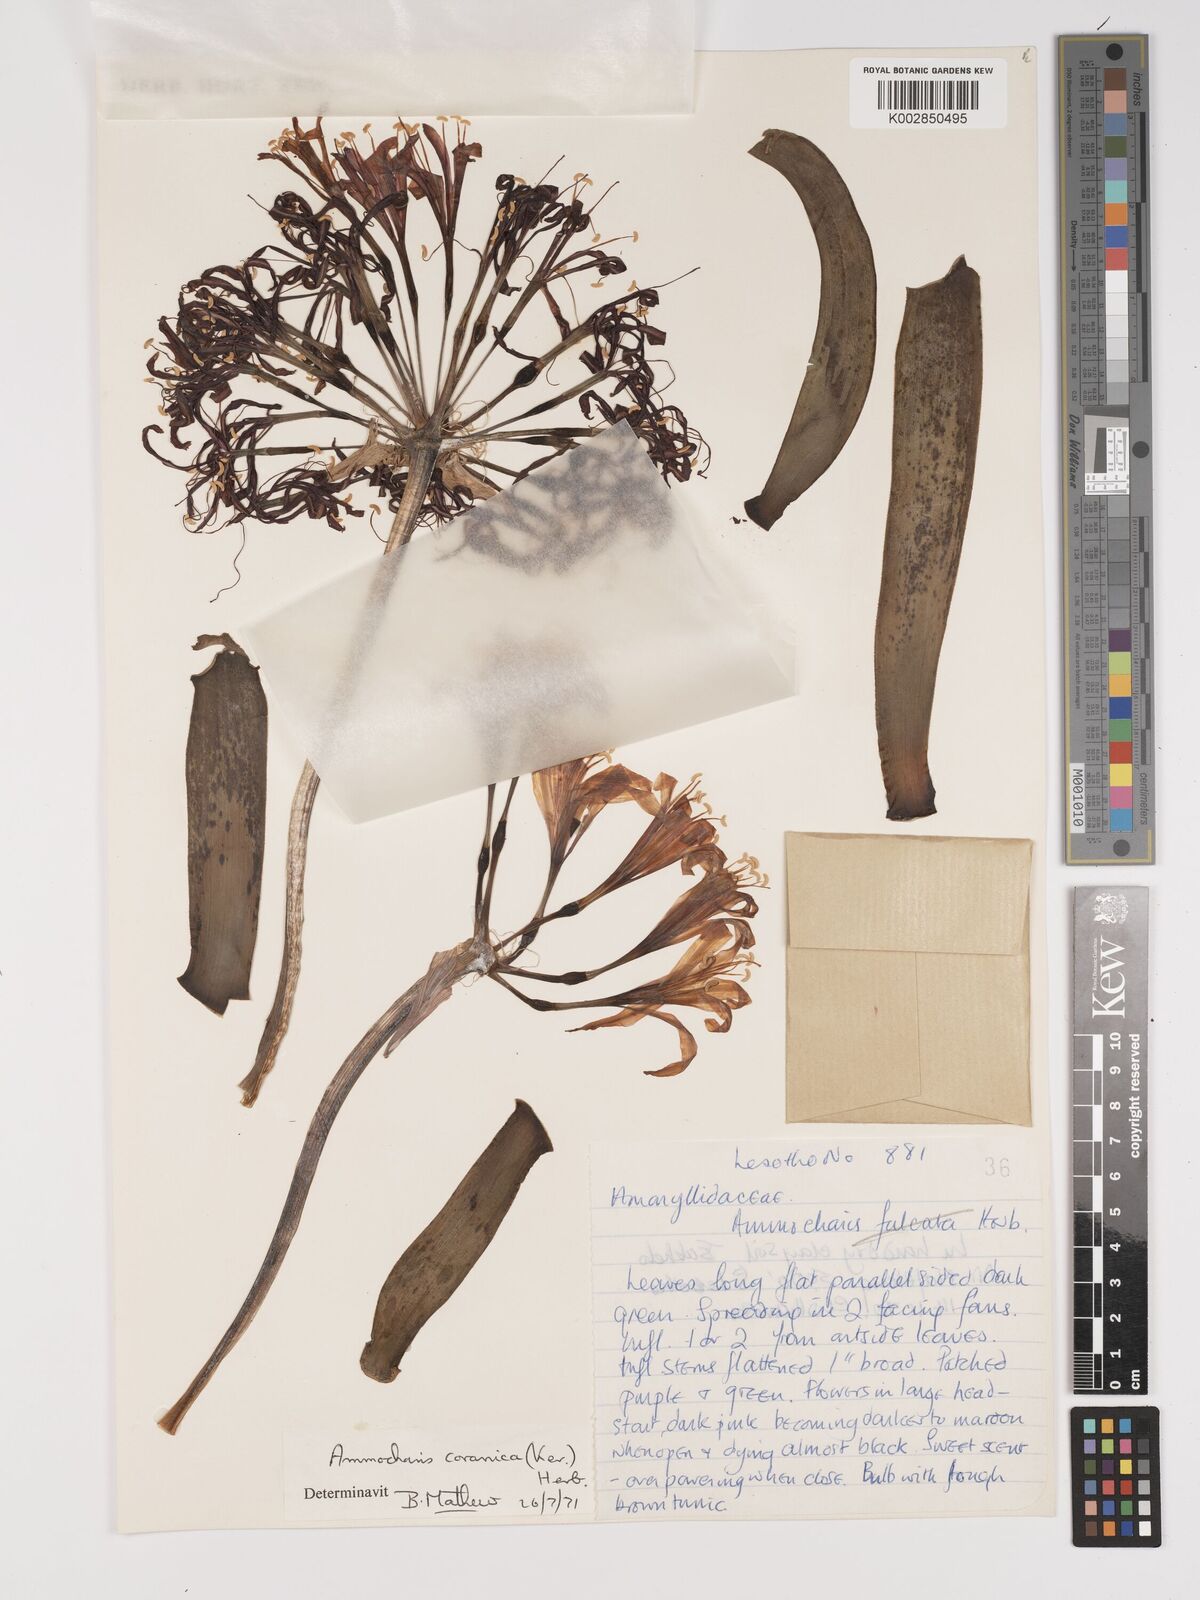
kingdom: Plantae
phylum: Tracheophyta
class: Liliopsida
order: Asparagales
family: Amaryllidaceae
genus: Ammocharis
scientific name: Ammocharis coranica
